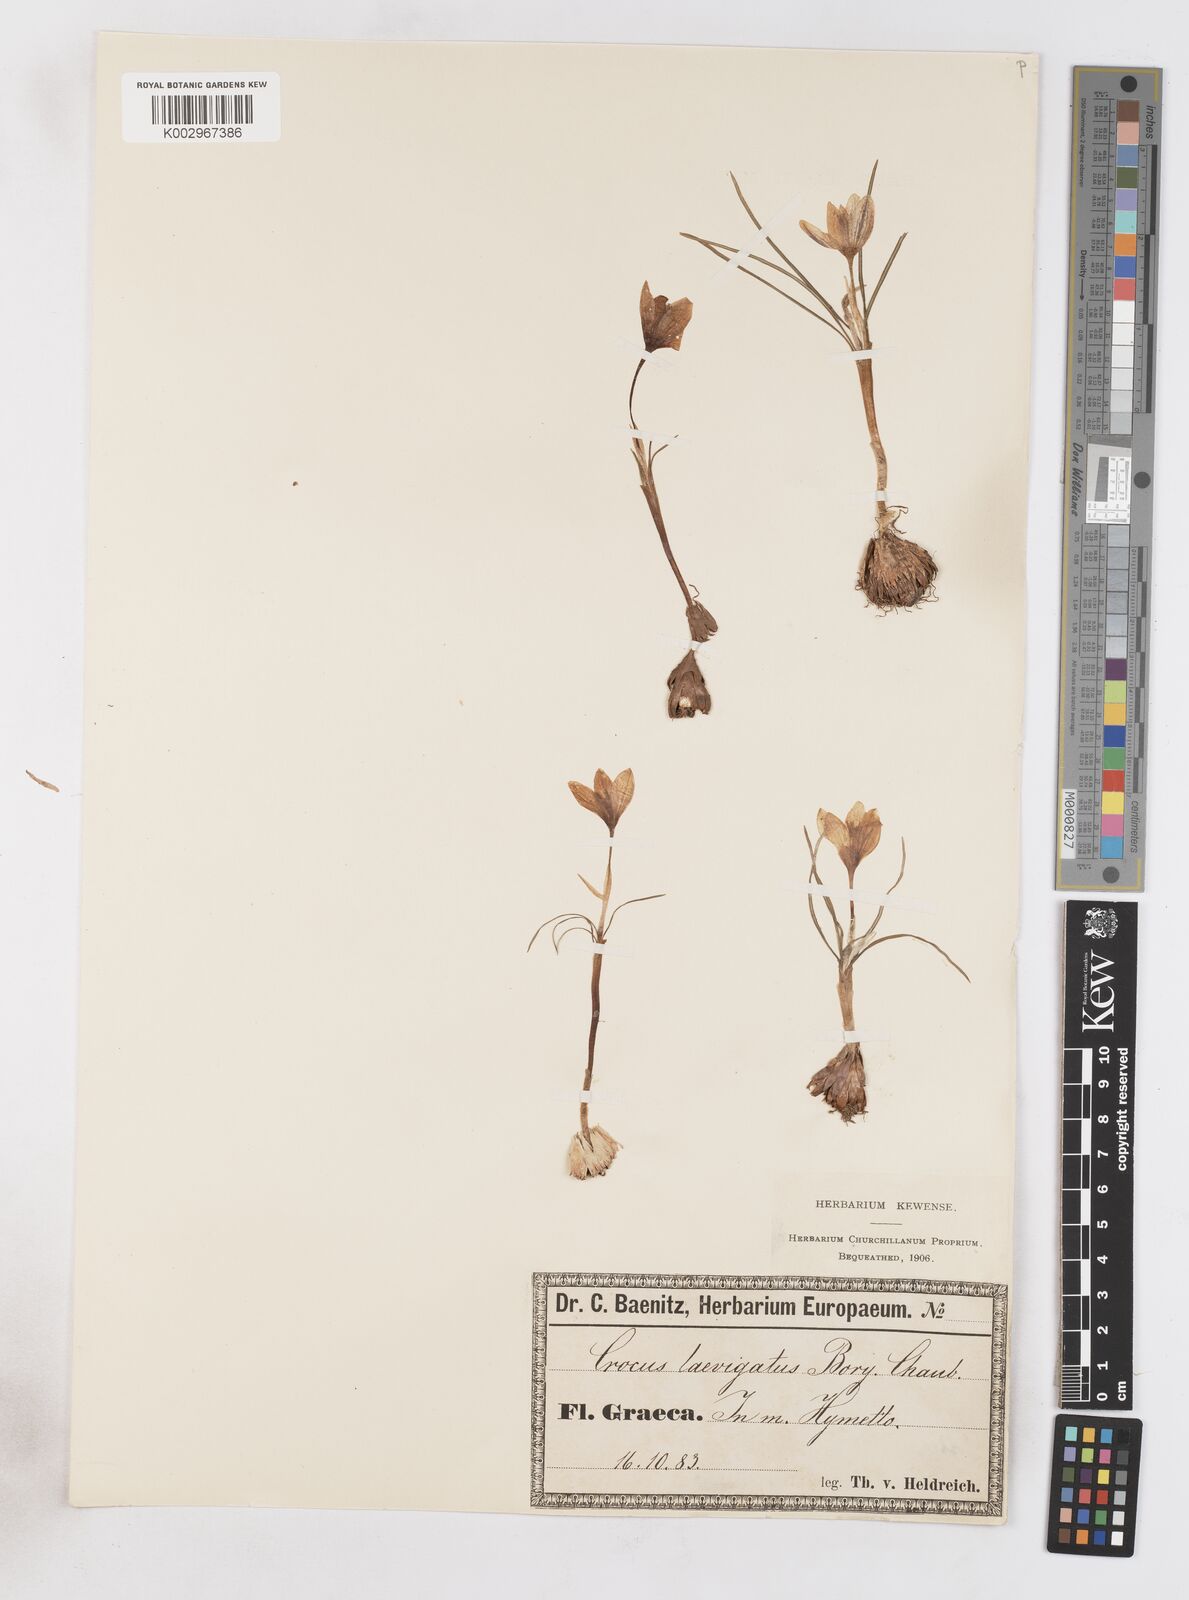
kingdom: Plantae
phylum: Tracheophyta
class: Liliopsida
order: Asparagales
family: Iridaceae
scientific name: Iridaceae
